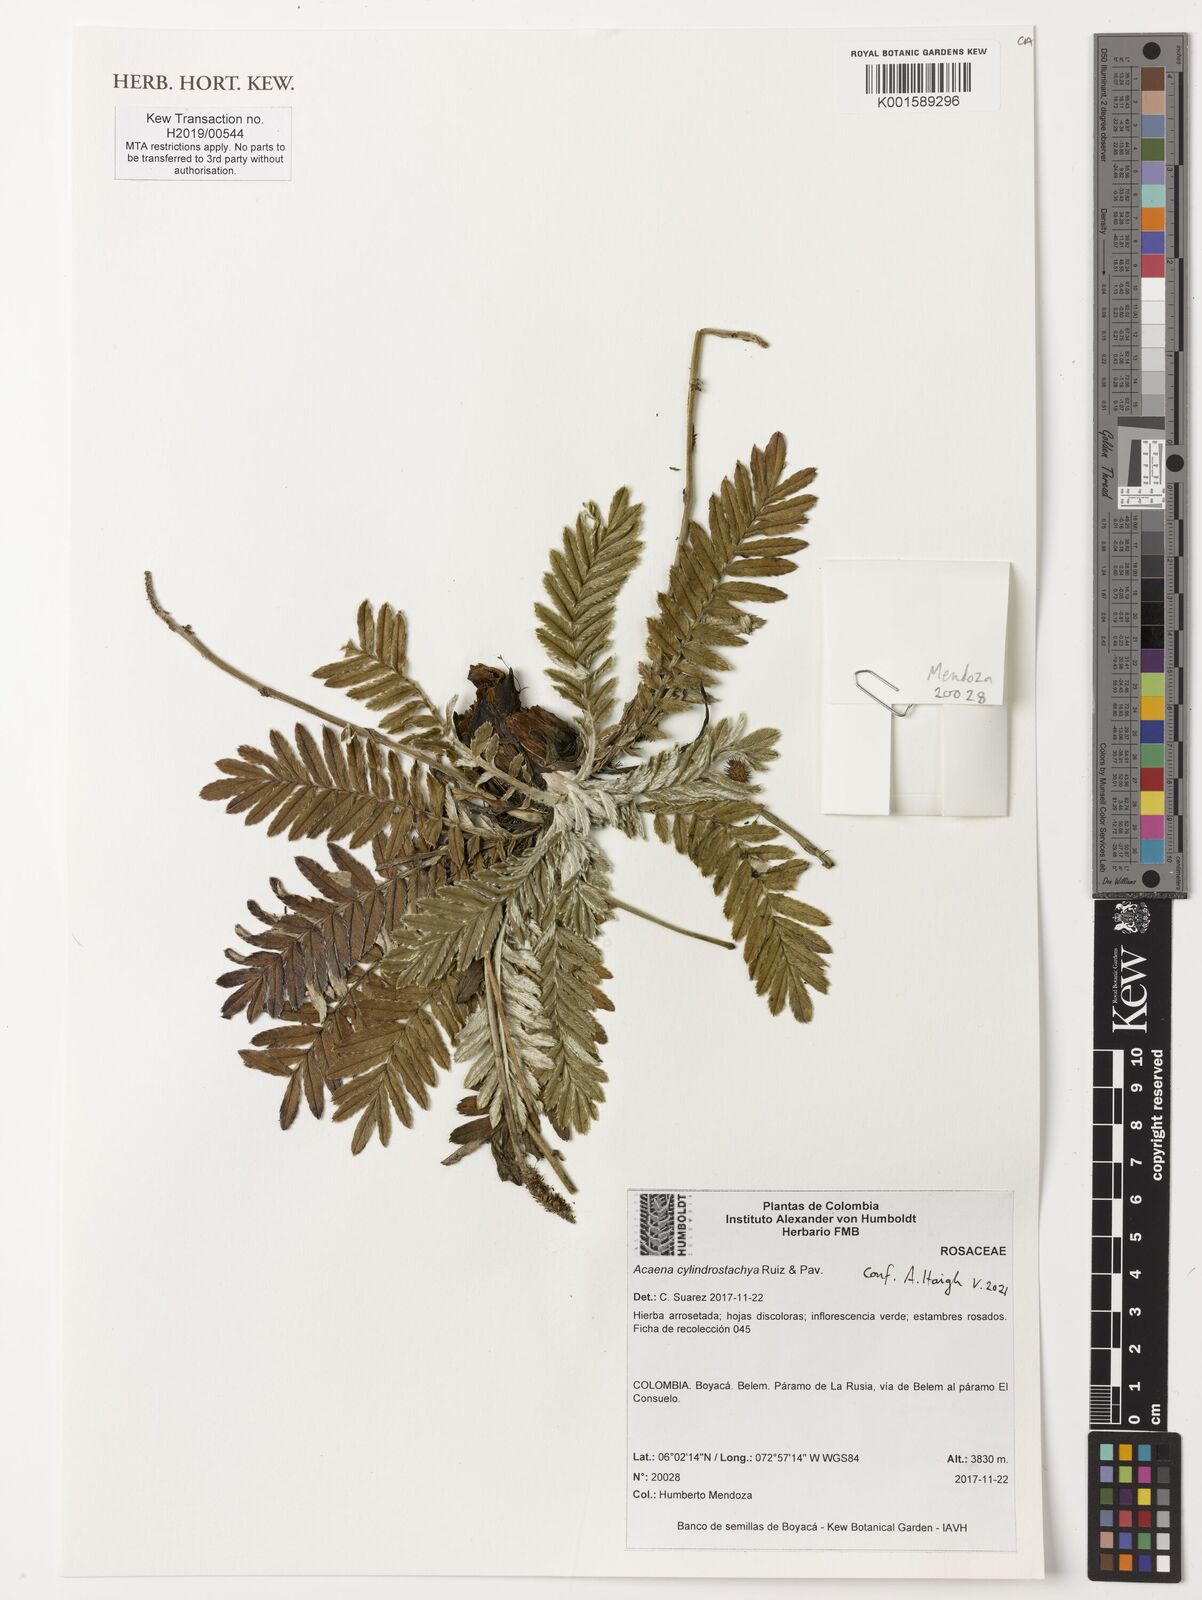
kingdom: Plantae
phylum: Tracheophyta
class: Magnoliopsida
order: Rosales
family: Rosaceae
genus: Acaena
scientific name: Acaena cylindristachya
